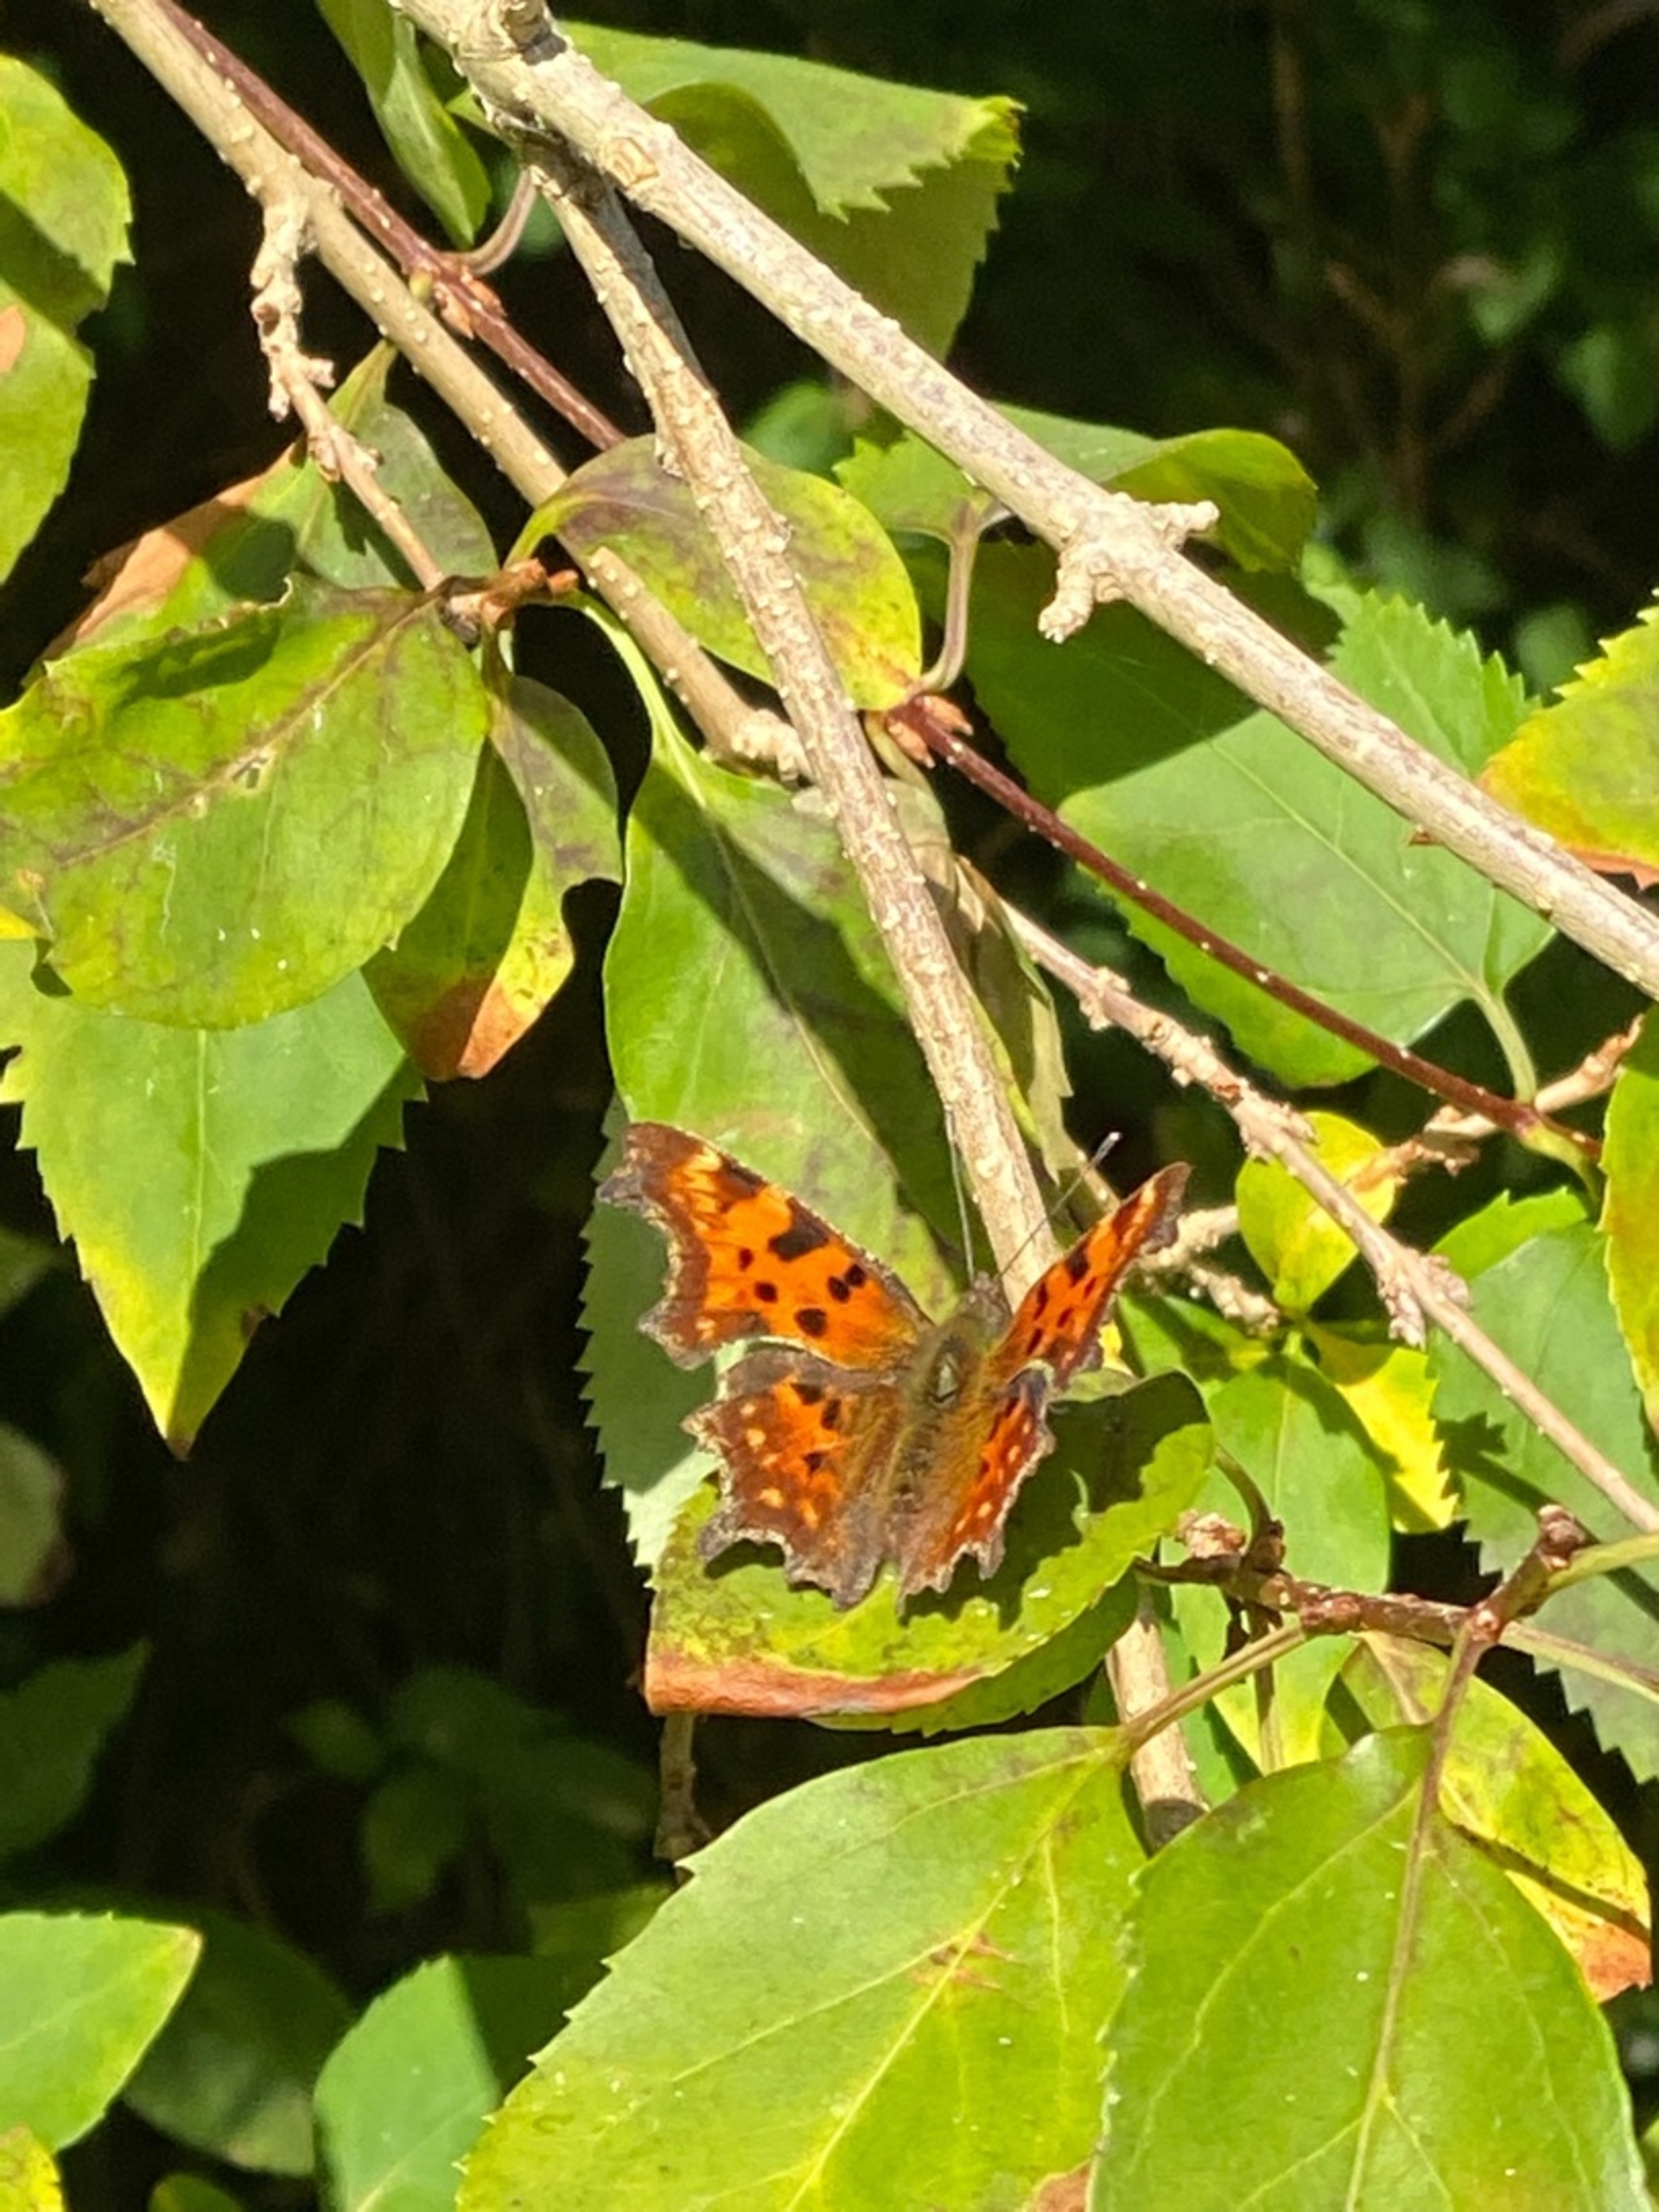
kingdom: Animalia
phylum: Arthropoda
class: Insecta
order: Lepidoptera
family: Nymphalidae
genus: Polygonia
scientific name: Polygonia c-album
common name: Det hvide C
